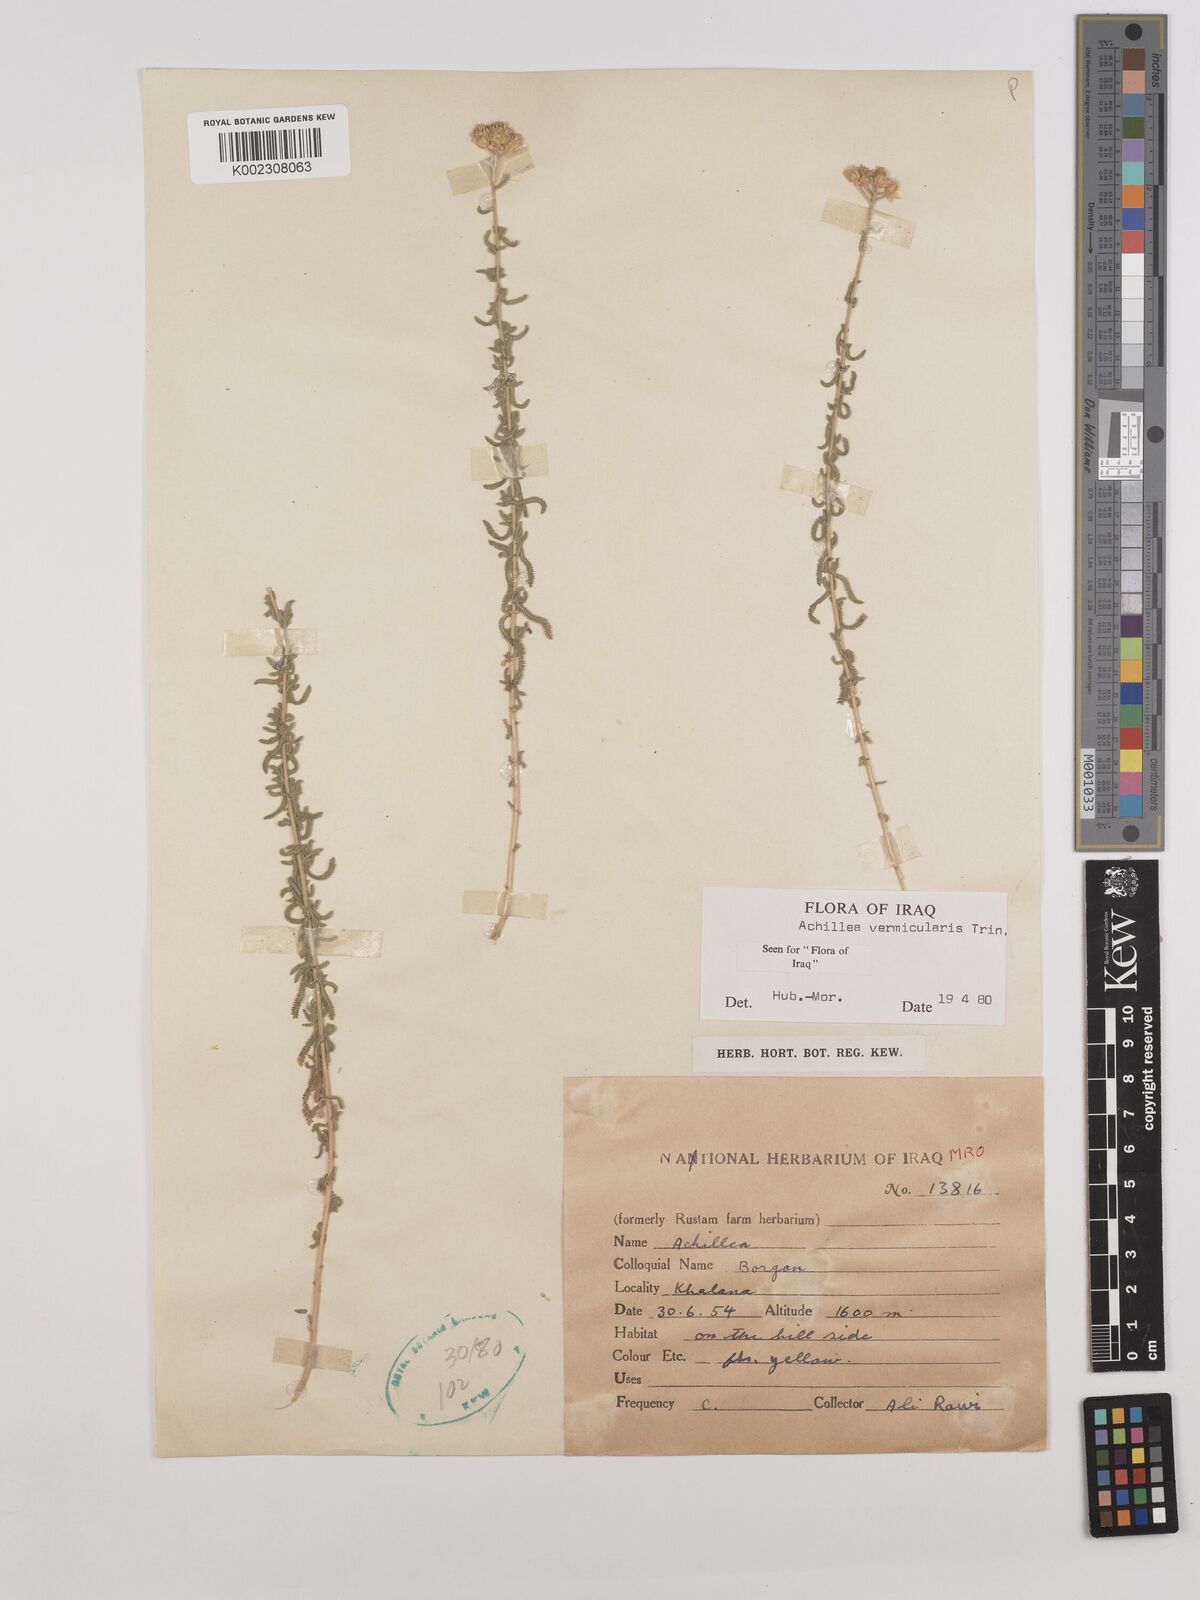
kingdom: Plantae
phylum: Tracheophyta
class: Magnoliopsida
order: Asterales
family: Asteraceae
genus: Achillea
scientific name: Achillea vermicularis
